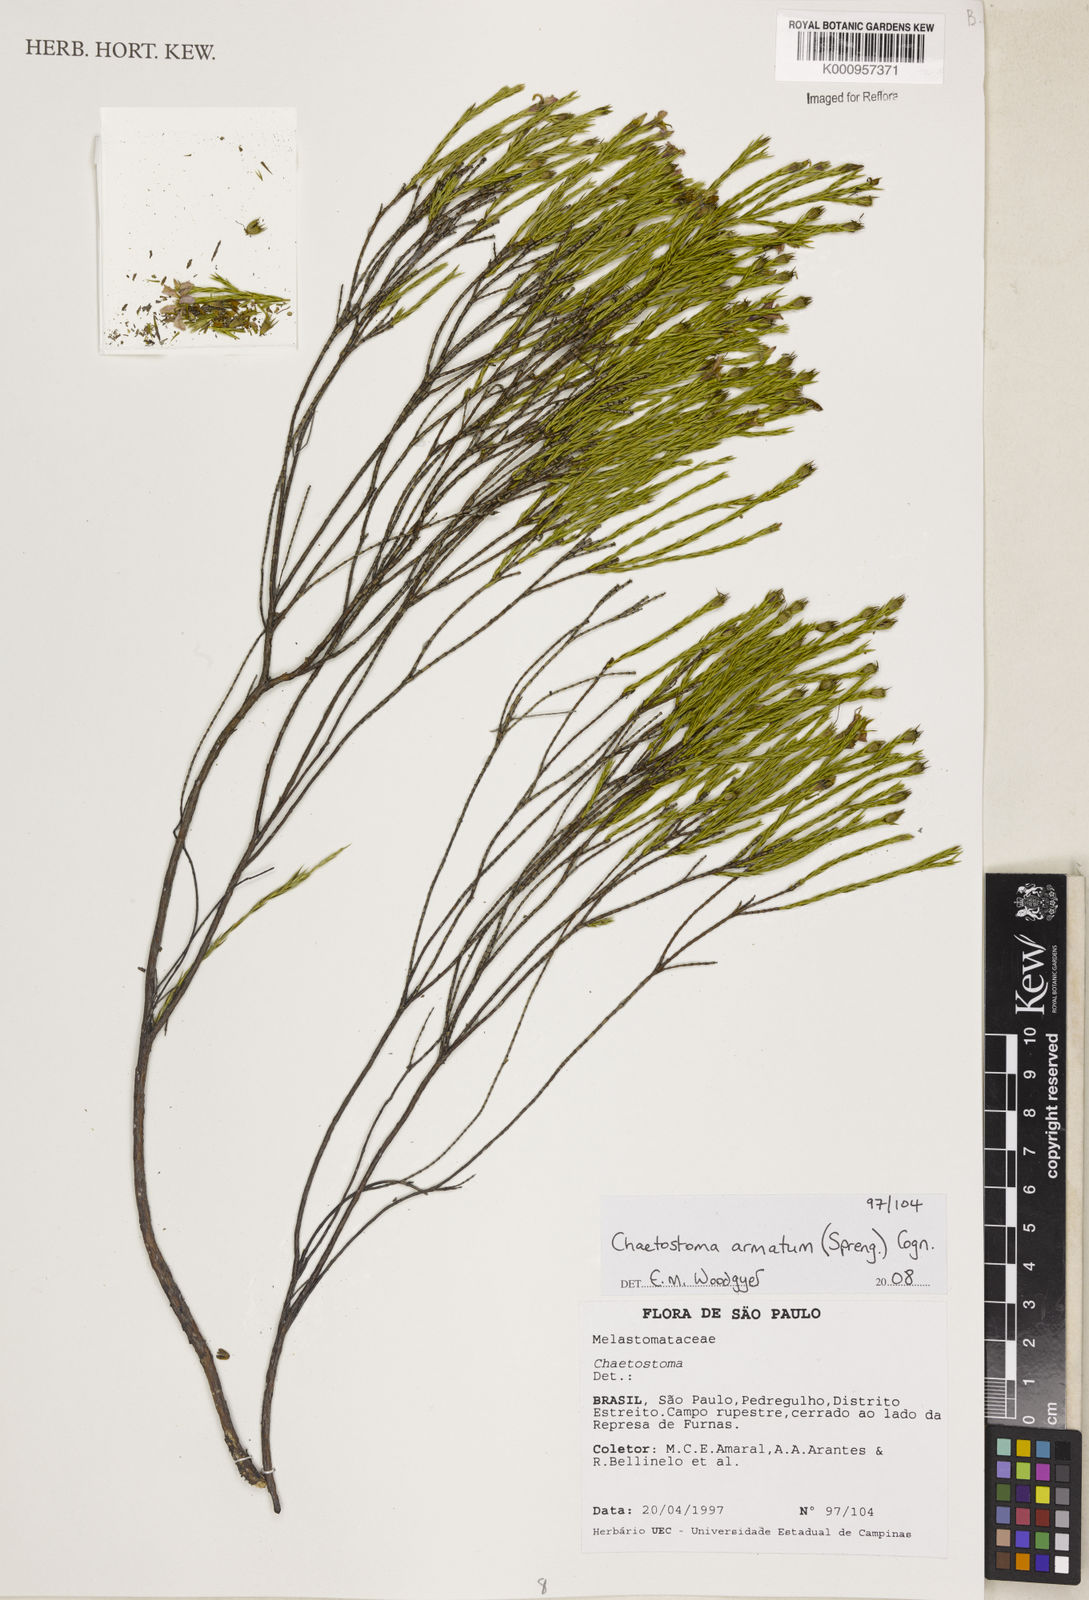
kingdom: Plantae
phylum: Tracheophyta
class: Magnoliopsida
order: Myrtales
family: Melastomataceae
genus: Microlicia
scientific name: Microlicia armata
